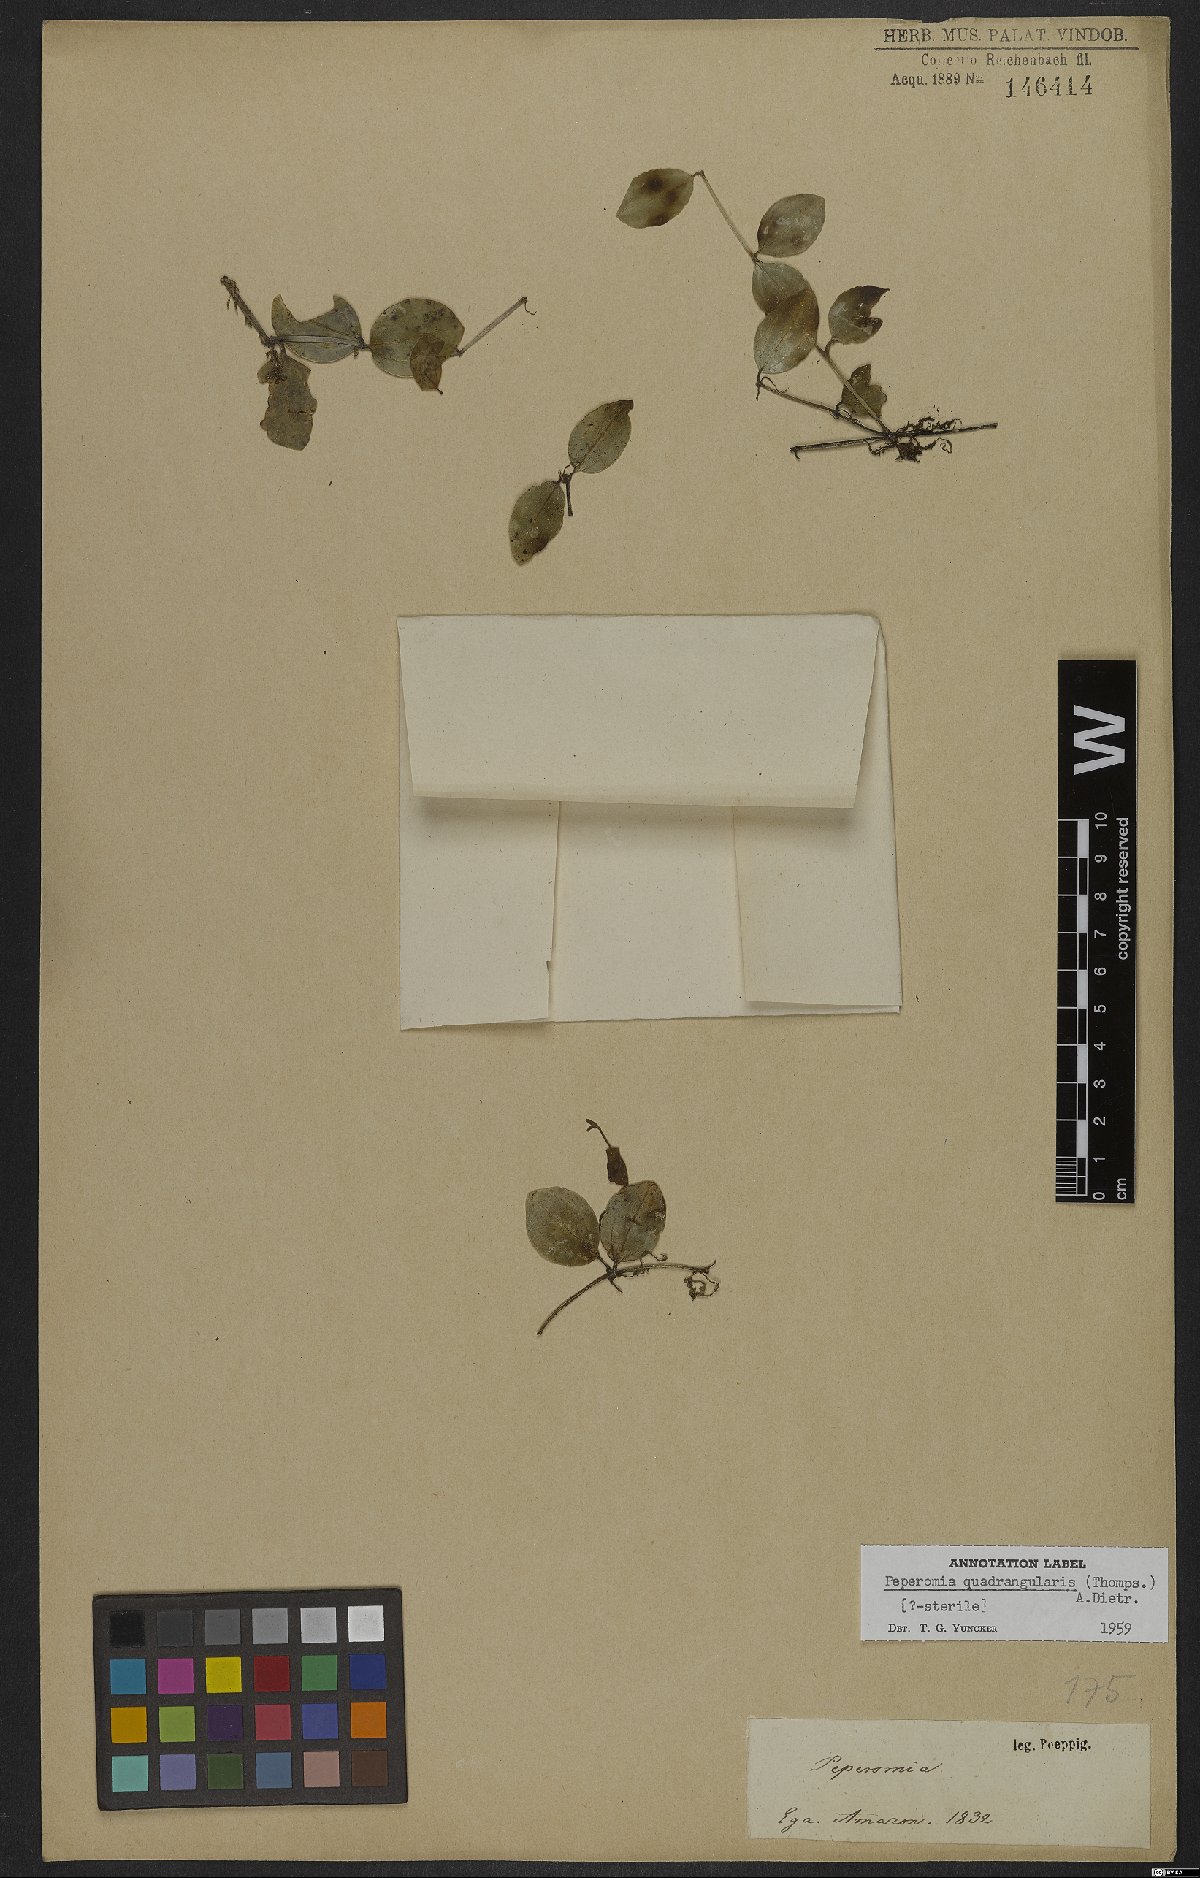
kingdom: Plantae
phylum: Tracheophyta
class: Magnoliopsida
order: Piperales
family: Piperaceae
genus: Peperomia
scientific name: Peperomia tetraphylla
